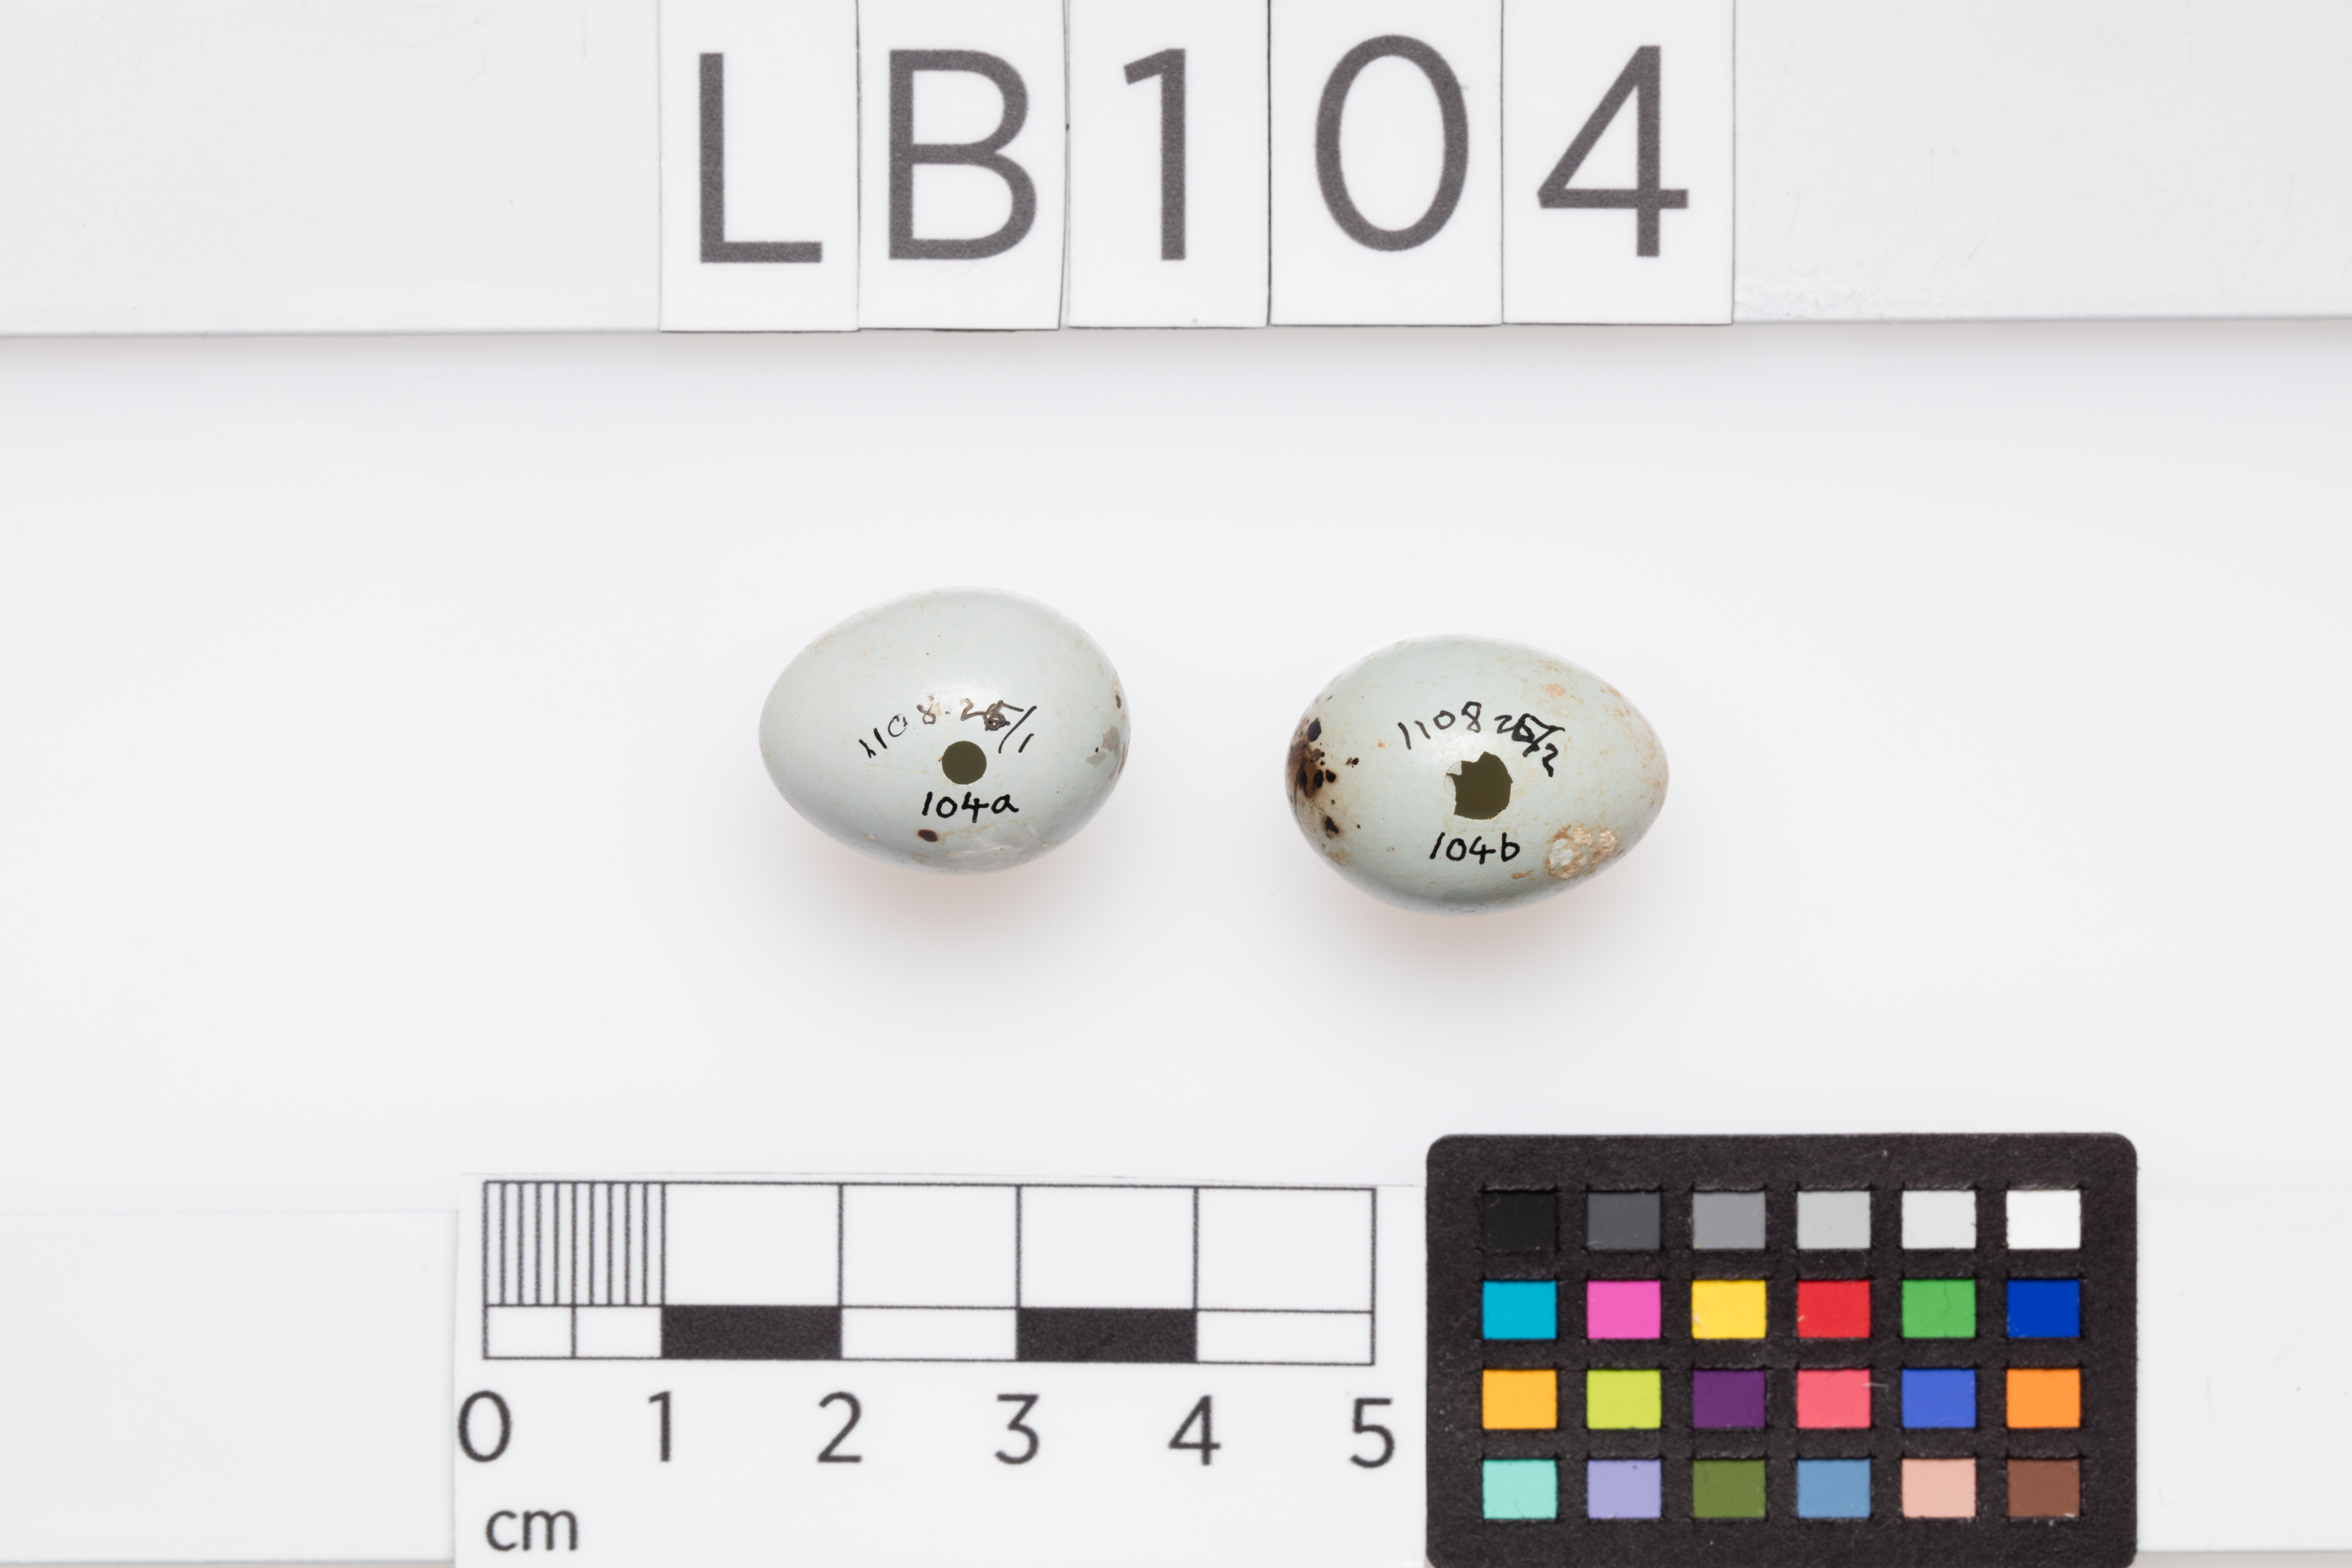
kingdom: Animalia
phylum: Chordata
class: Aves
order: Passeriformes
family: Turdidae
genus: Turdus
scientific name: Turdus philomelos
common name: Song thrush
